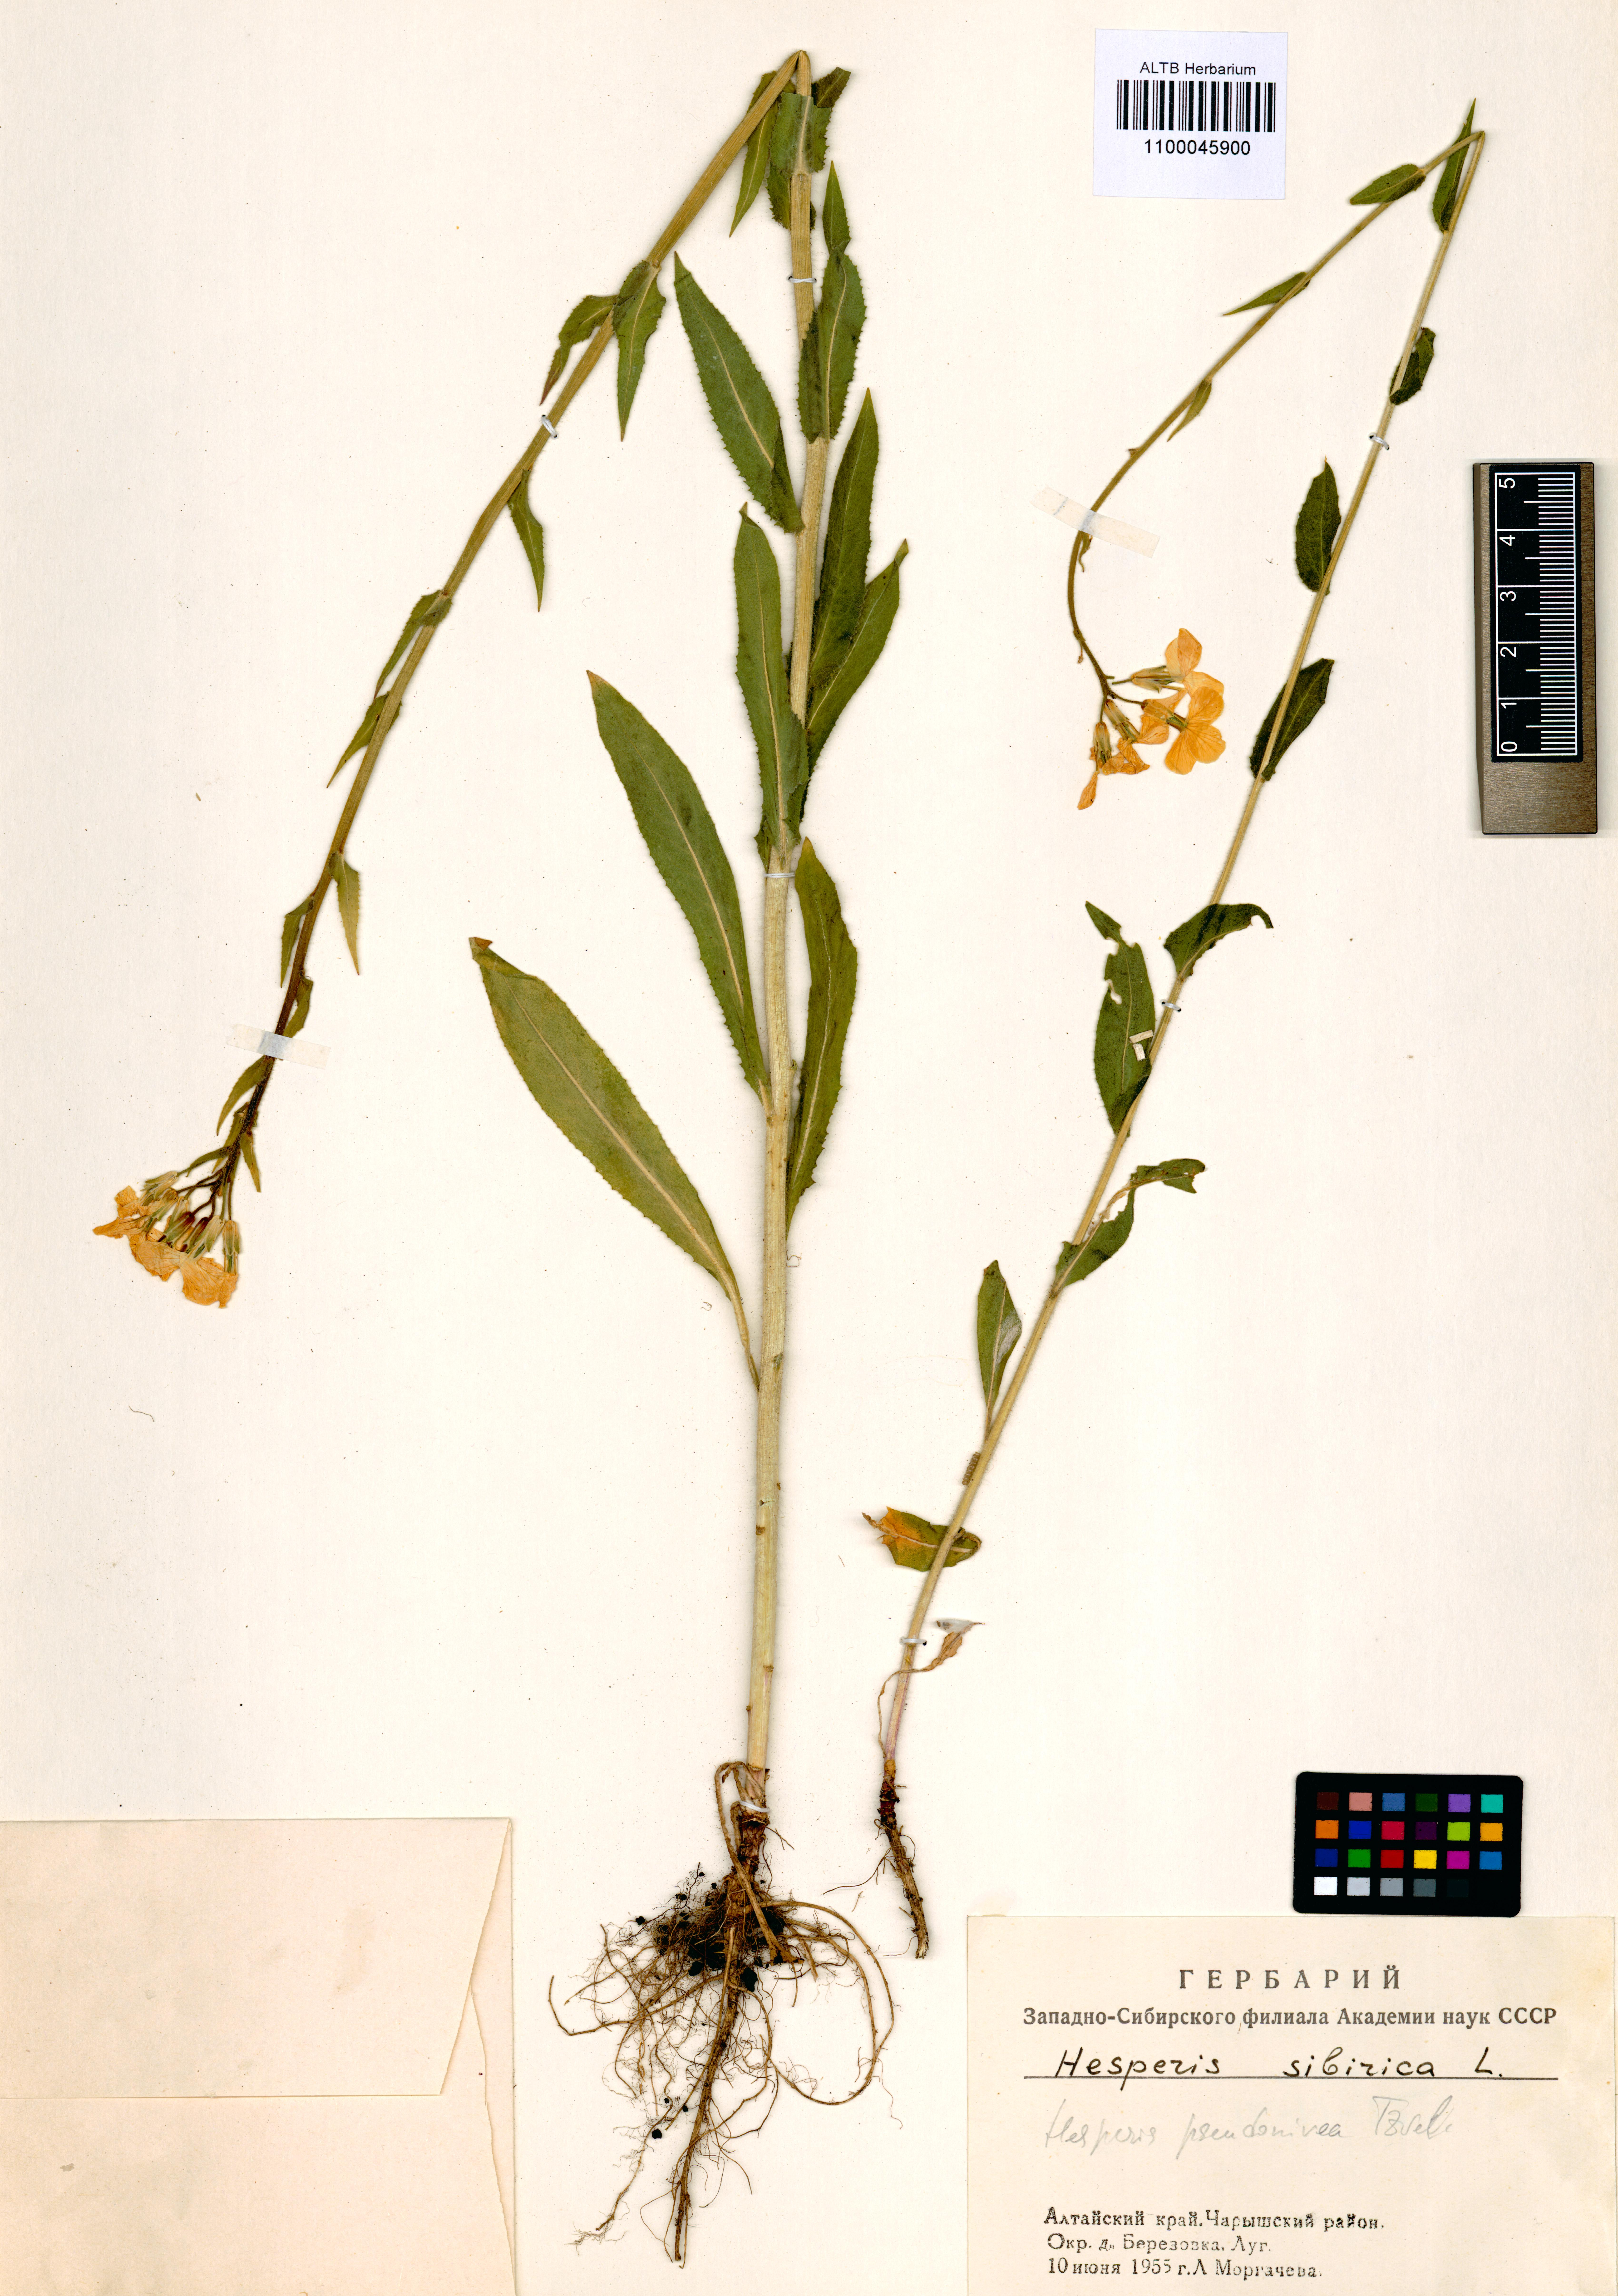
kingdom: Plantae
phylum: Tracheophyta
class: Magnoliopsida
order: Brassicales
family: Brassicaceae
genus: Hesperis
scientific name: Hesperis sibirica
